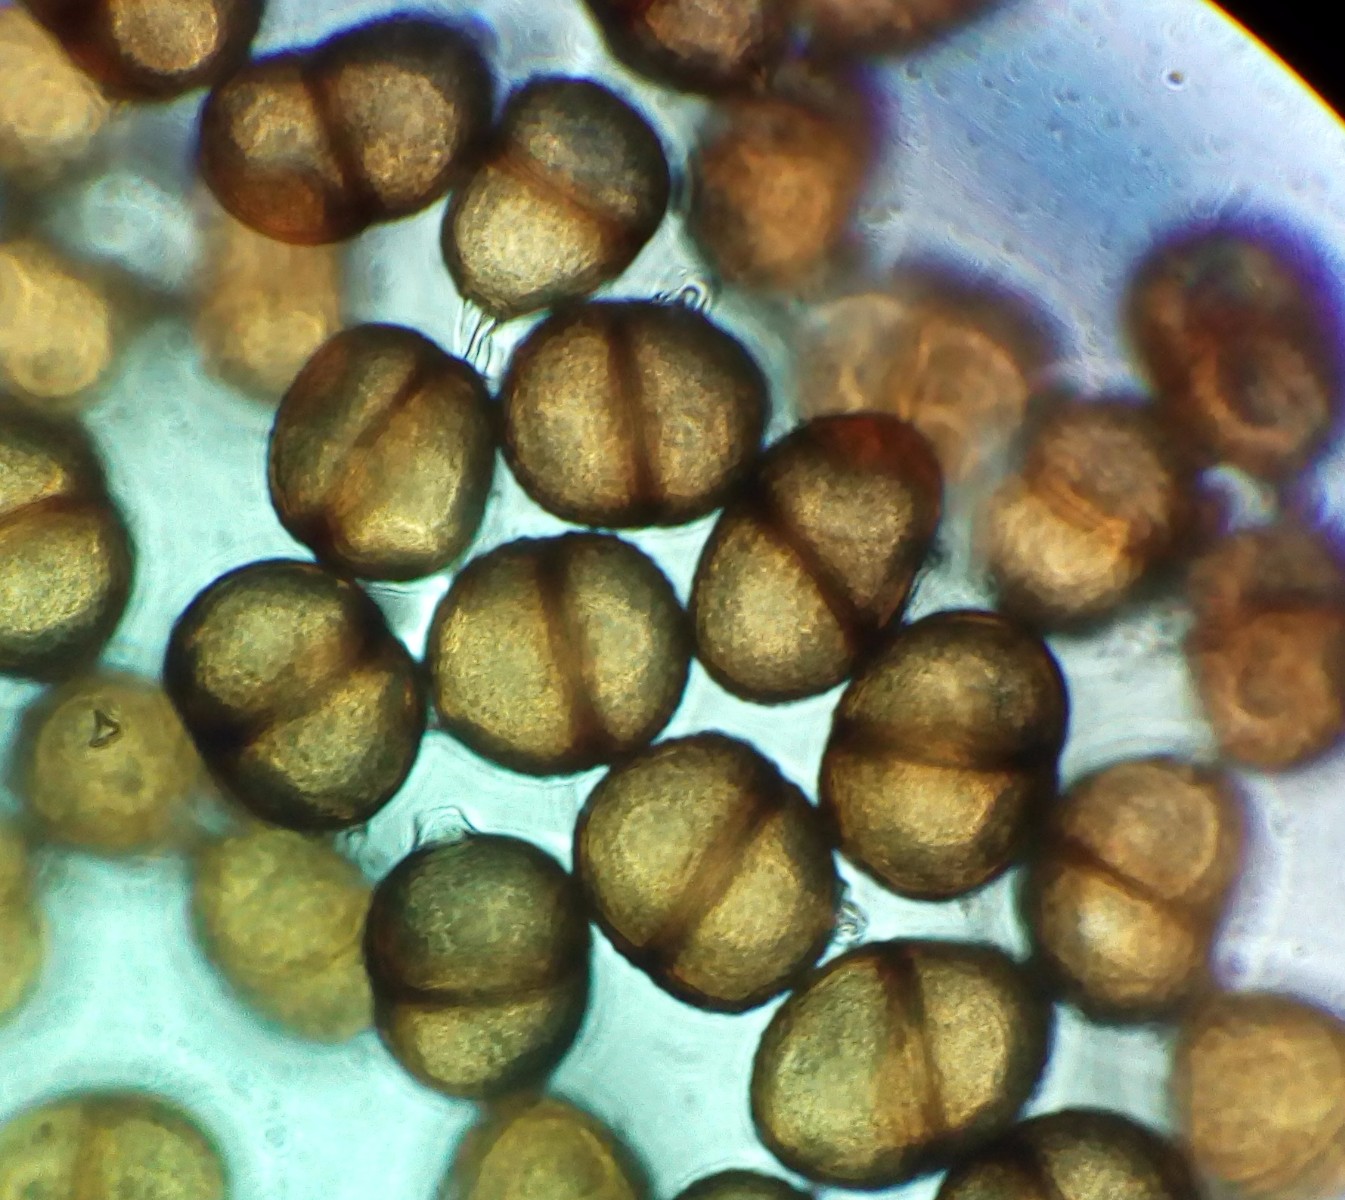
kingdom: Fungi
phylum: Basidiomycota
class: Pucciniomycetes
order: Pucciniales
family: Pucciniaceae
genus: Puccinia
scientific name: Puccinia hieracii
